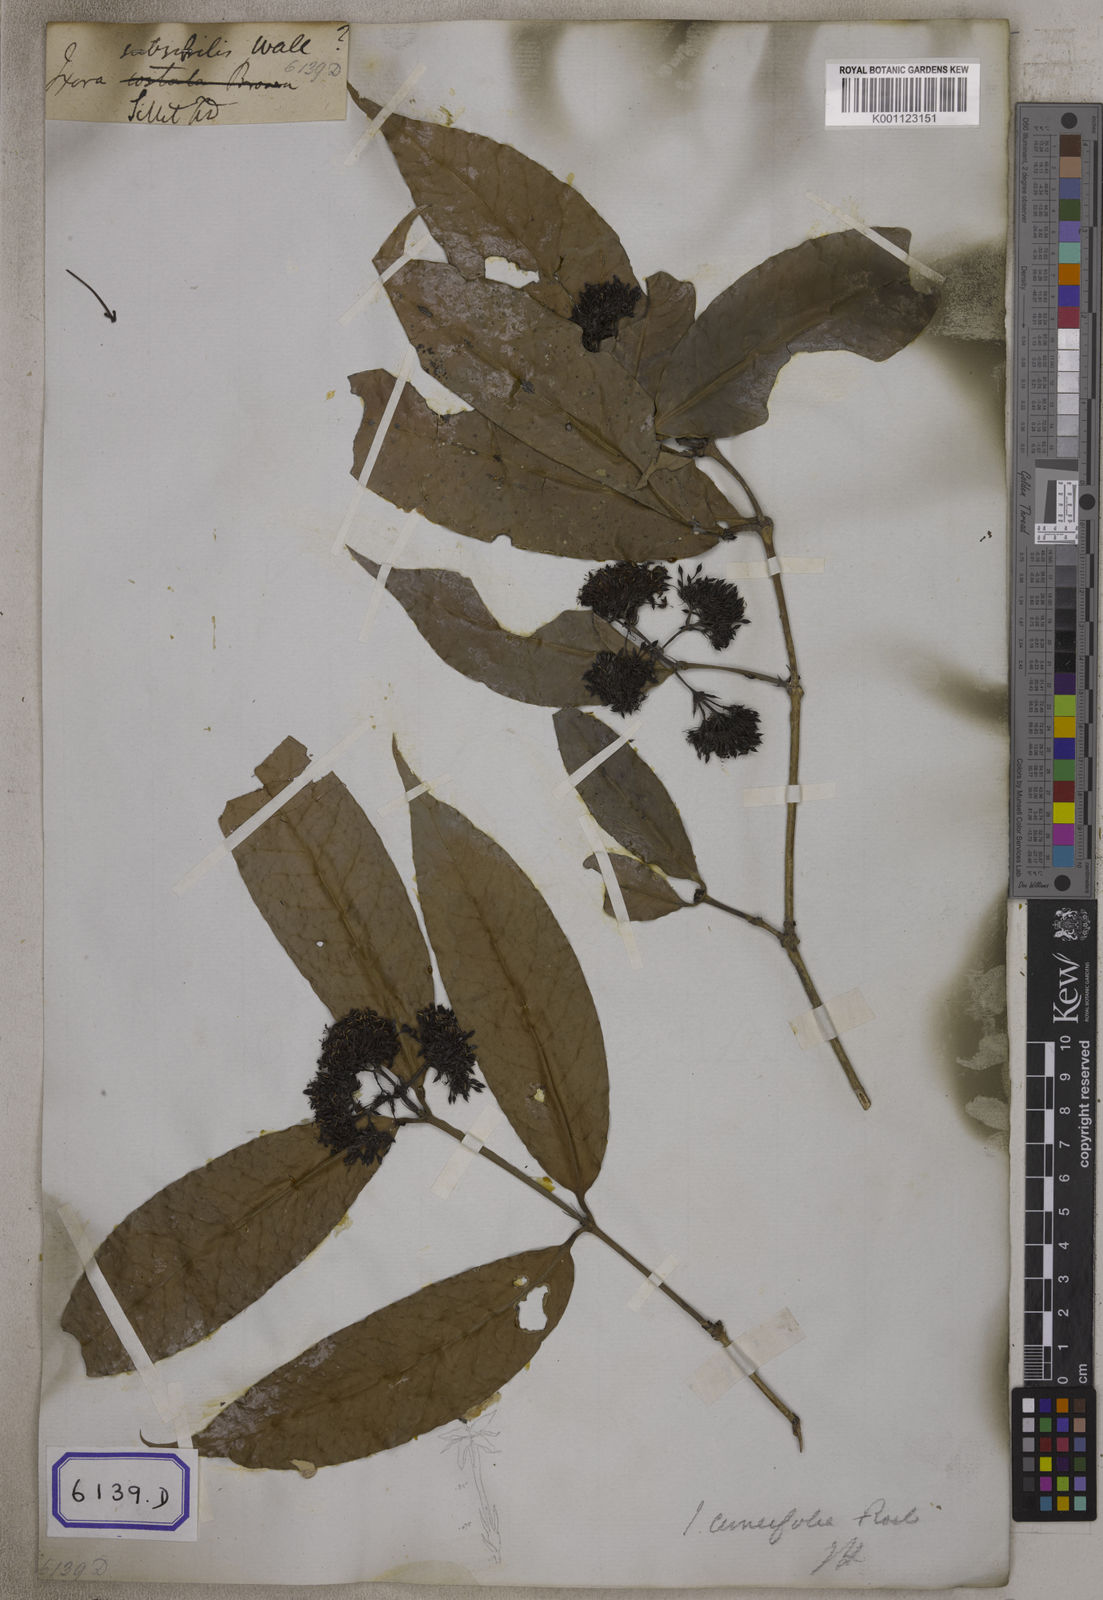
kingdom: Plantae
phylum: Tracheophyta
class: Magnoliopsida
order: Gentianales
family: Rubiaceae
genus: Ixora
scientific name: Ixora
